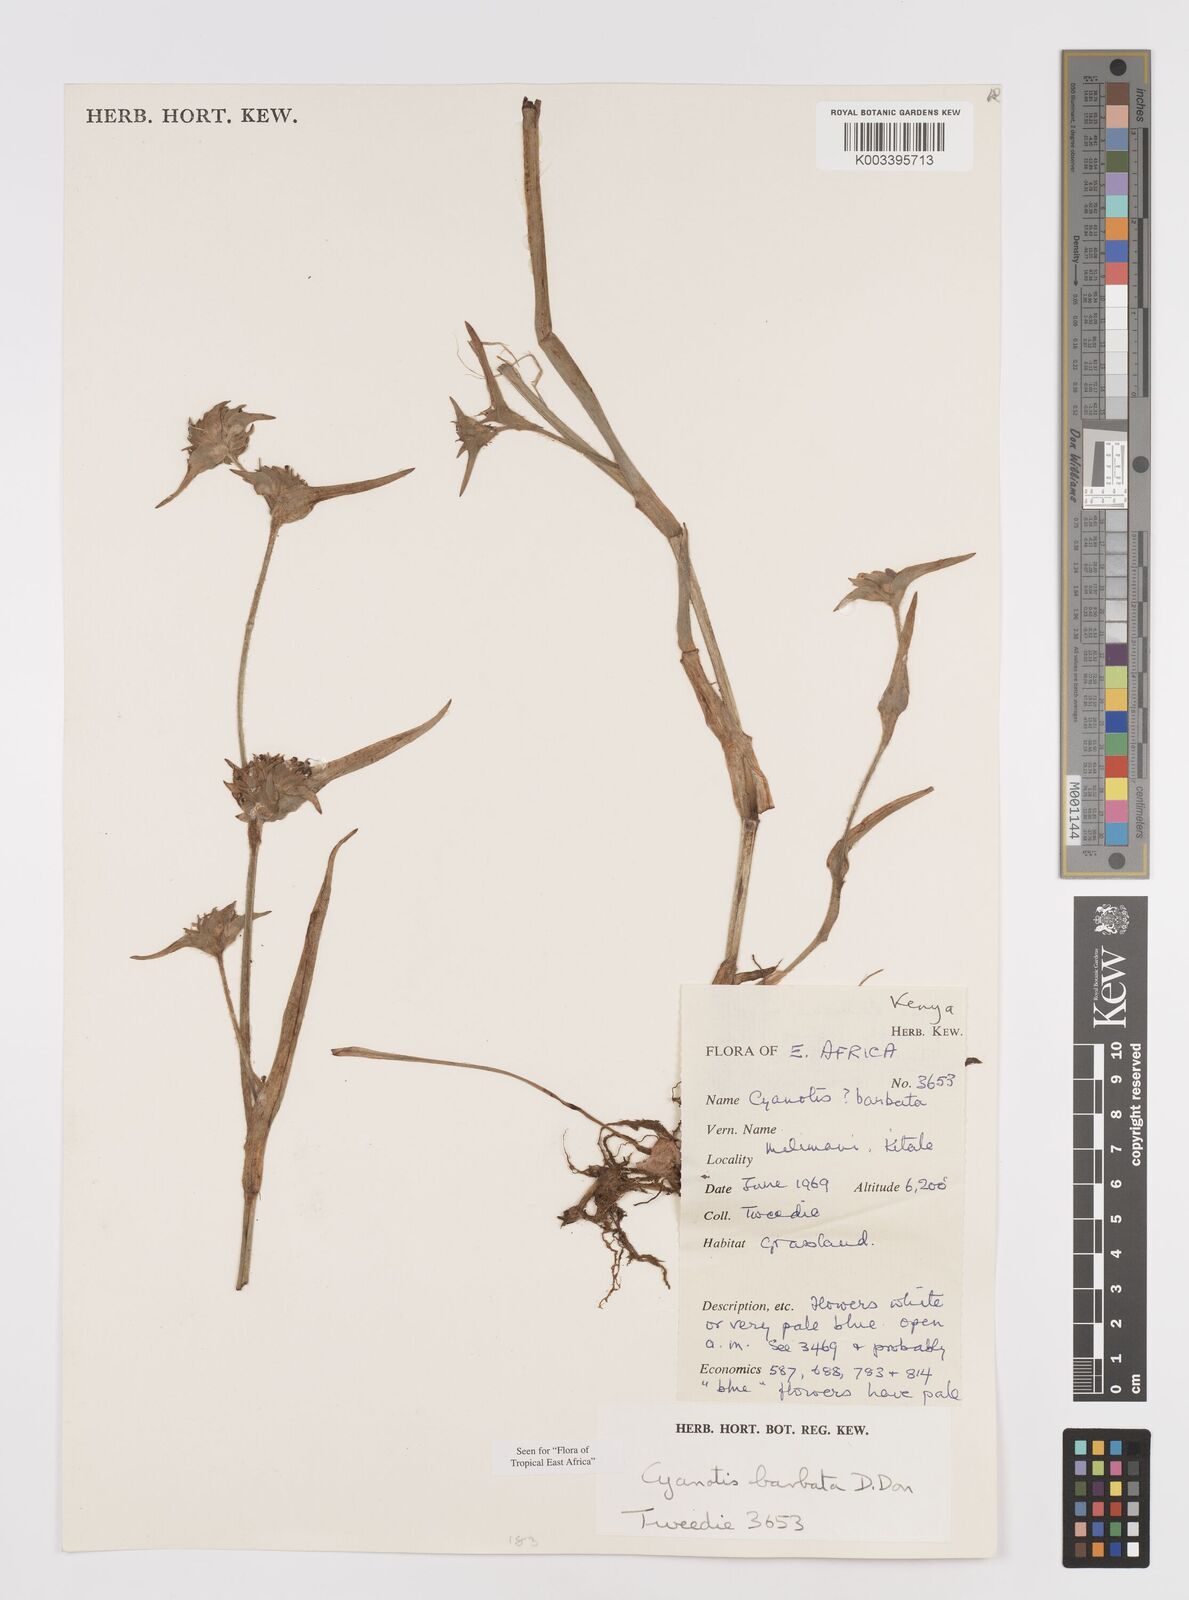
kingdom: Plantae
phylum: Tracheophyta
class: Liliopsida
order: Commelinales
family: Commelinaceae
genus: Cyanotis
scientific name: Cyanotis vaga
